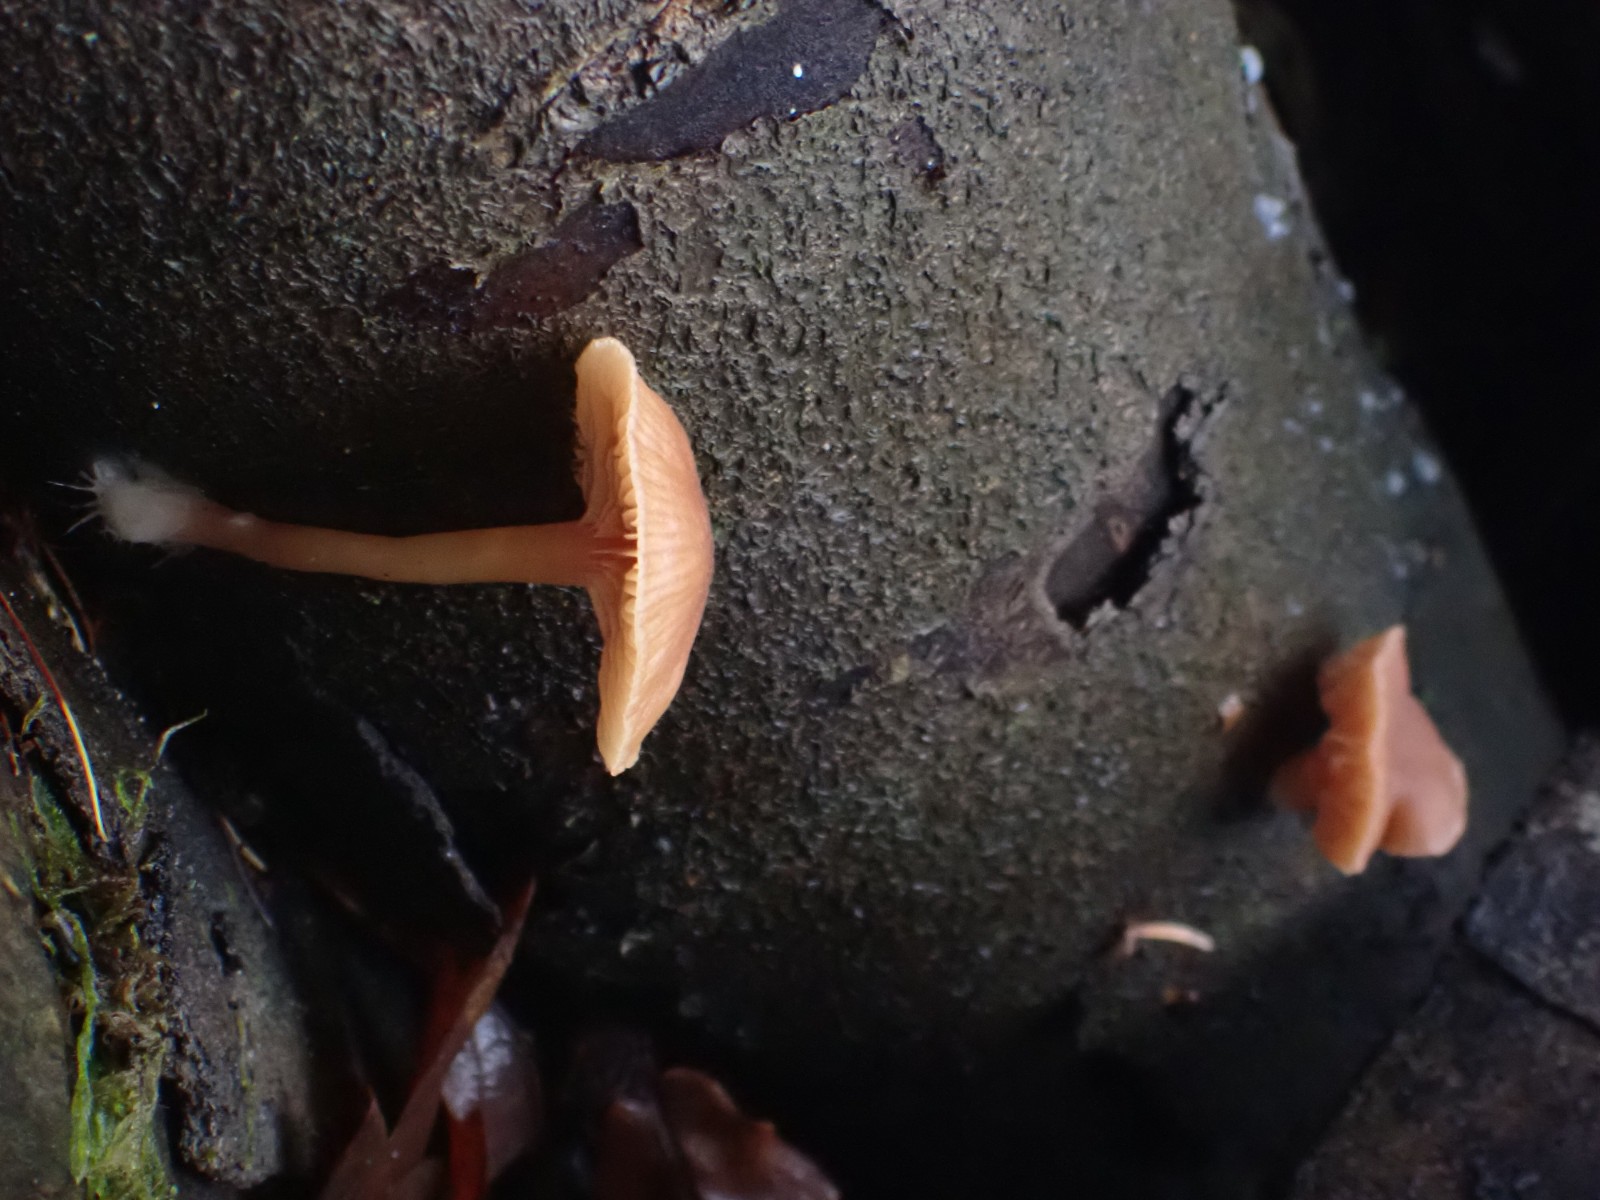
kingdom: Fungi
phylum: Basidiomycota
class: Agaricomycetes
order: Agaricales
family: Tubariaceae
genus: Tubaria
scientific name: Tubaria furfuracea
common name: kliddet fnughat
